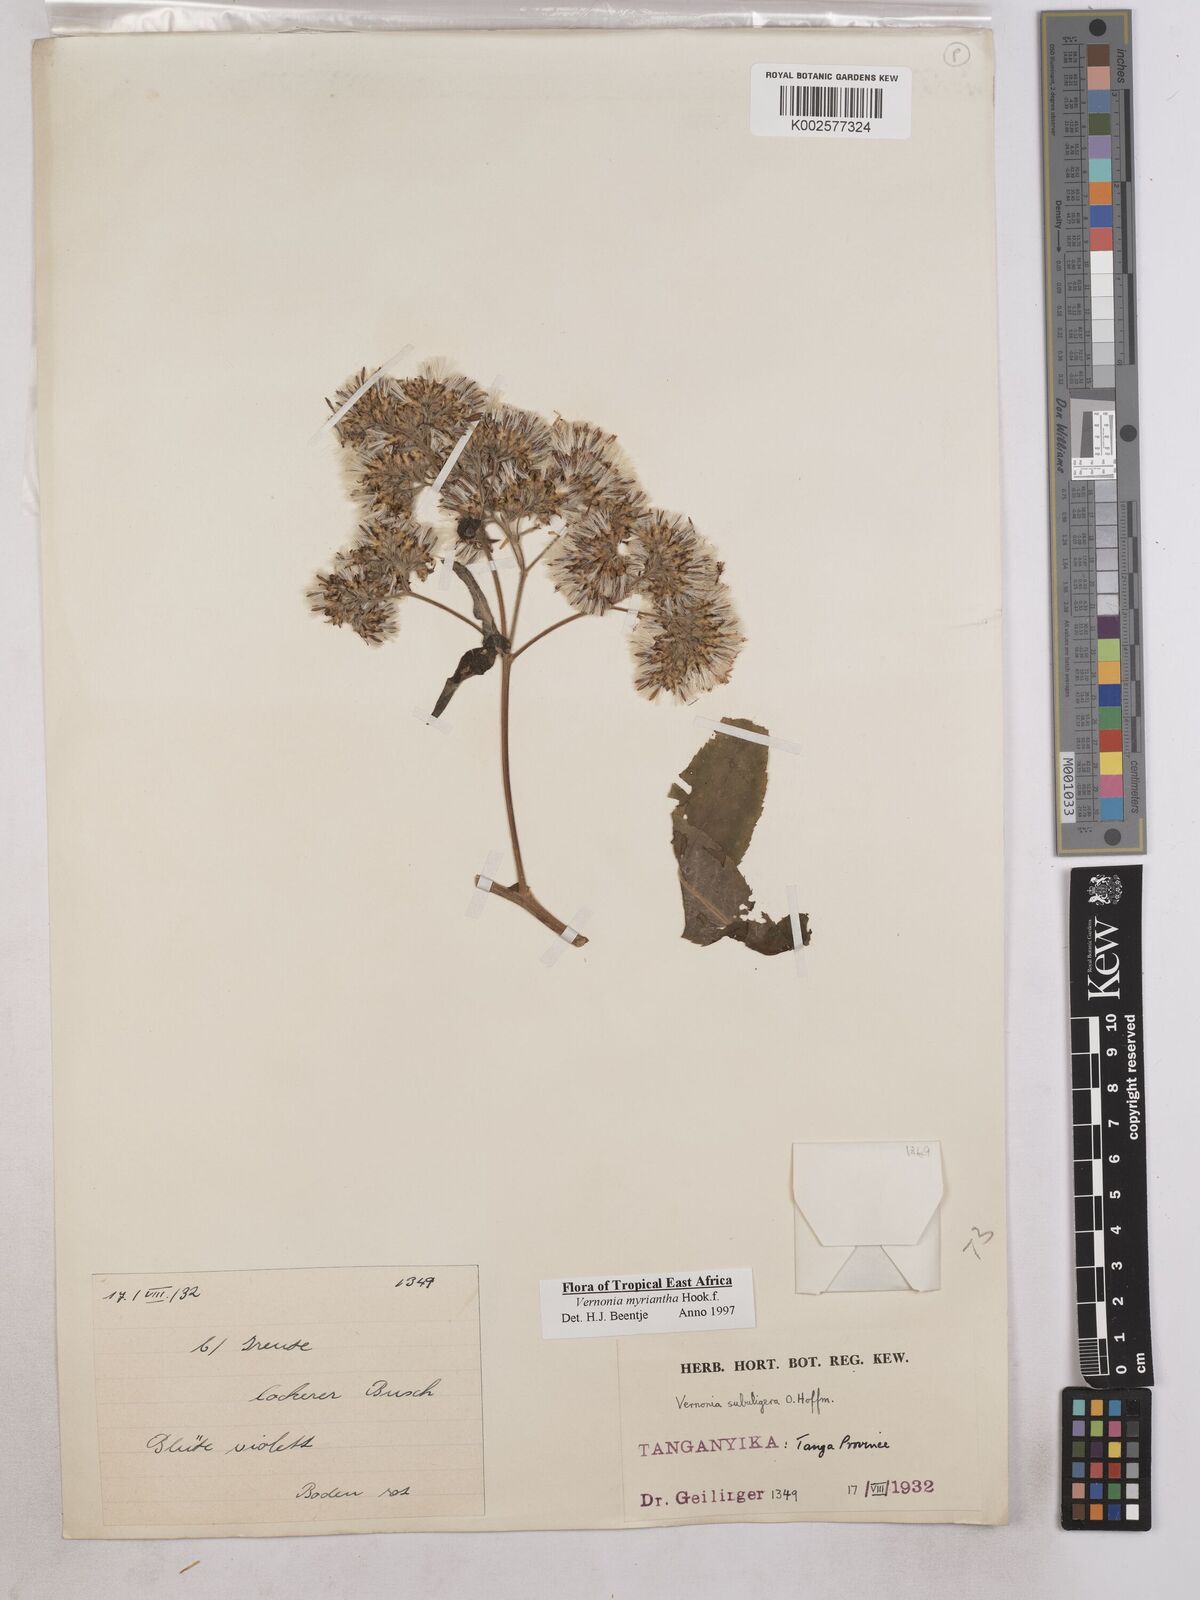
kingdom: Plantae
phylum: Tracheophyta
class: Magnoliopsida
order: Asterales
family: Asteraceae
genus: Gymnanthemum
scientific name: Gymnanthemum myrianthum
